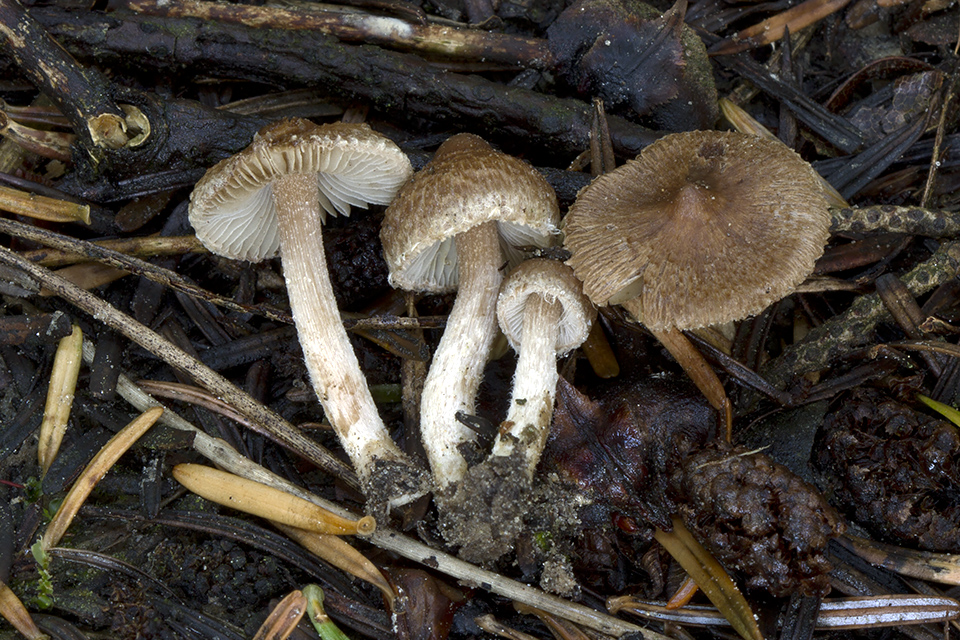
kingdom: Fungi
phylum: Basidiomycota
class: Agaricomycetes
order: Agaricales
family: Inocybaceae
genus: Inocybe
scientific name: Inocybe laurina
